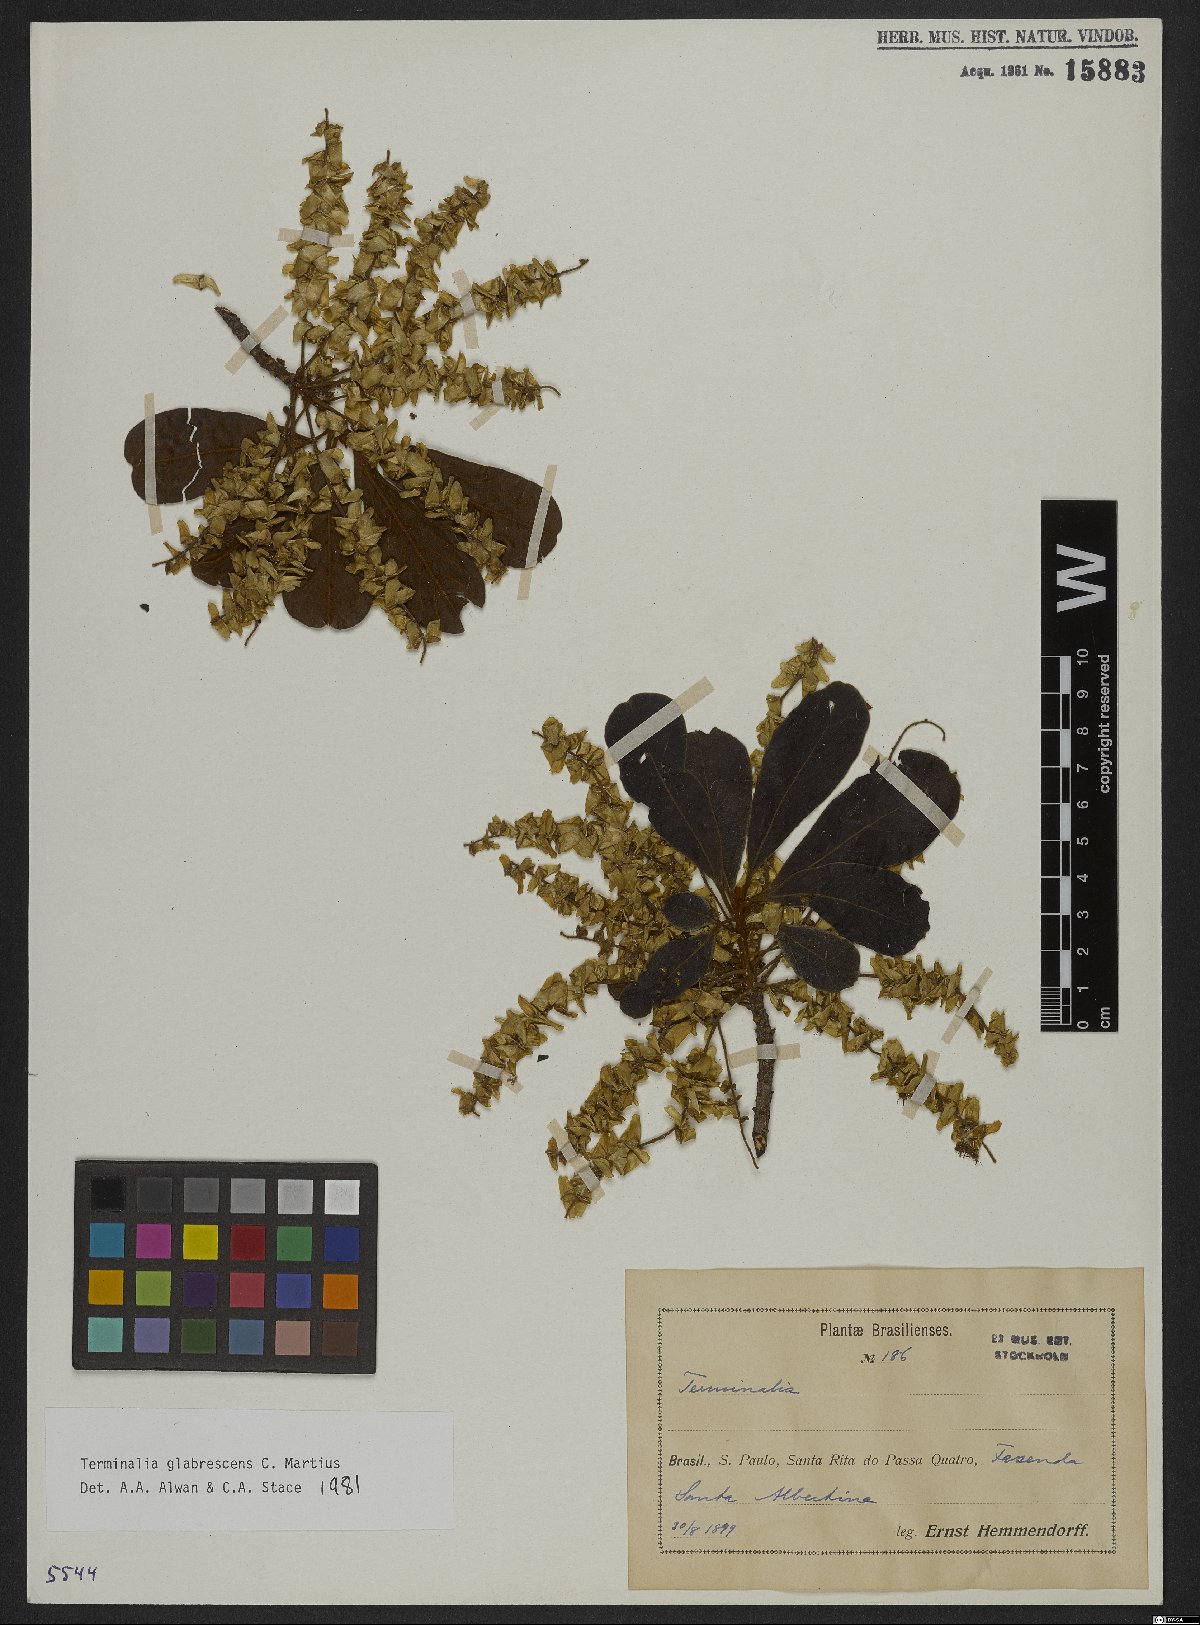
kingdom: Plantae
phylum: Tracheophyta
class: Magnoliopsida
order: Myrtales
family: Combretaceae
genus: Terminalia
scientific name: Terminalia glabrescens
